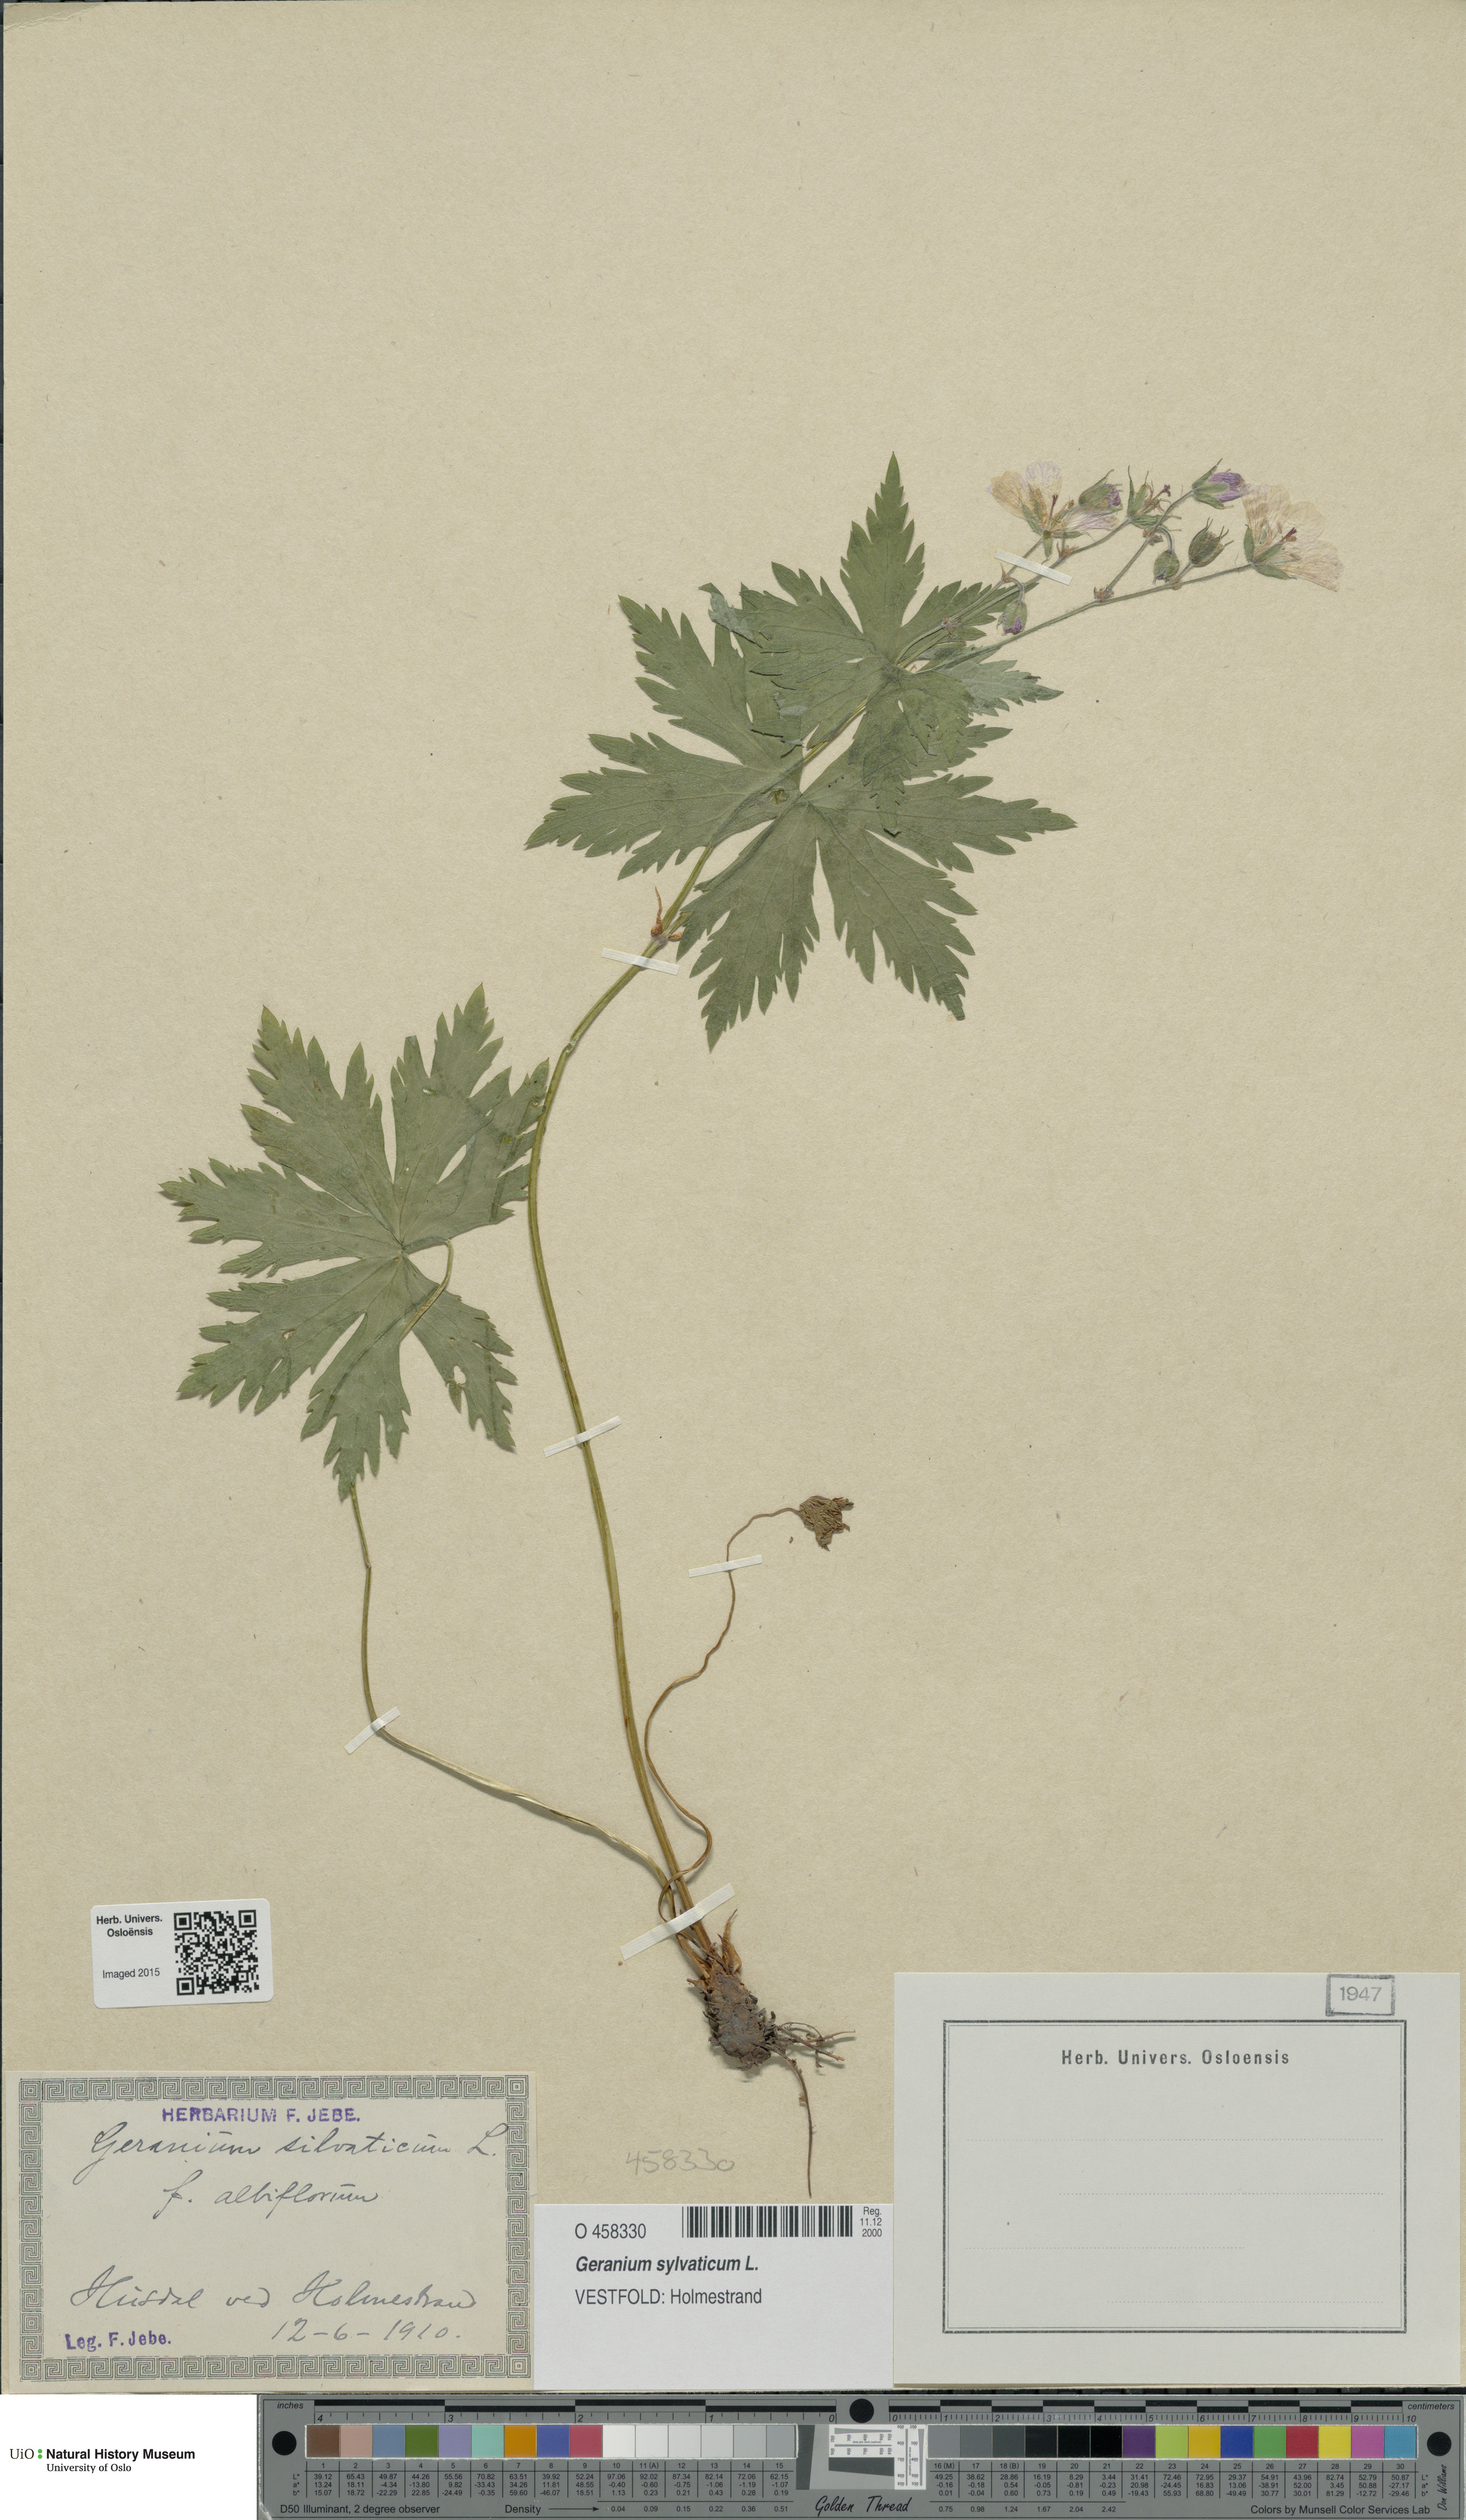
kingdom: Plantae
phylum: Tracheophyta
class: Magnoliopsida
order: Geraniales
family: Geraniaceae
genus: Geranium
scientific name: Geranium sylvaticum
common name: Wood crane's-bill
